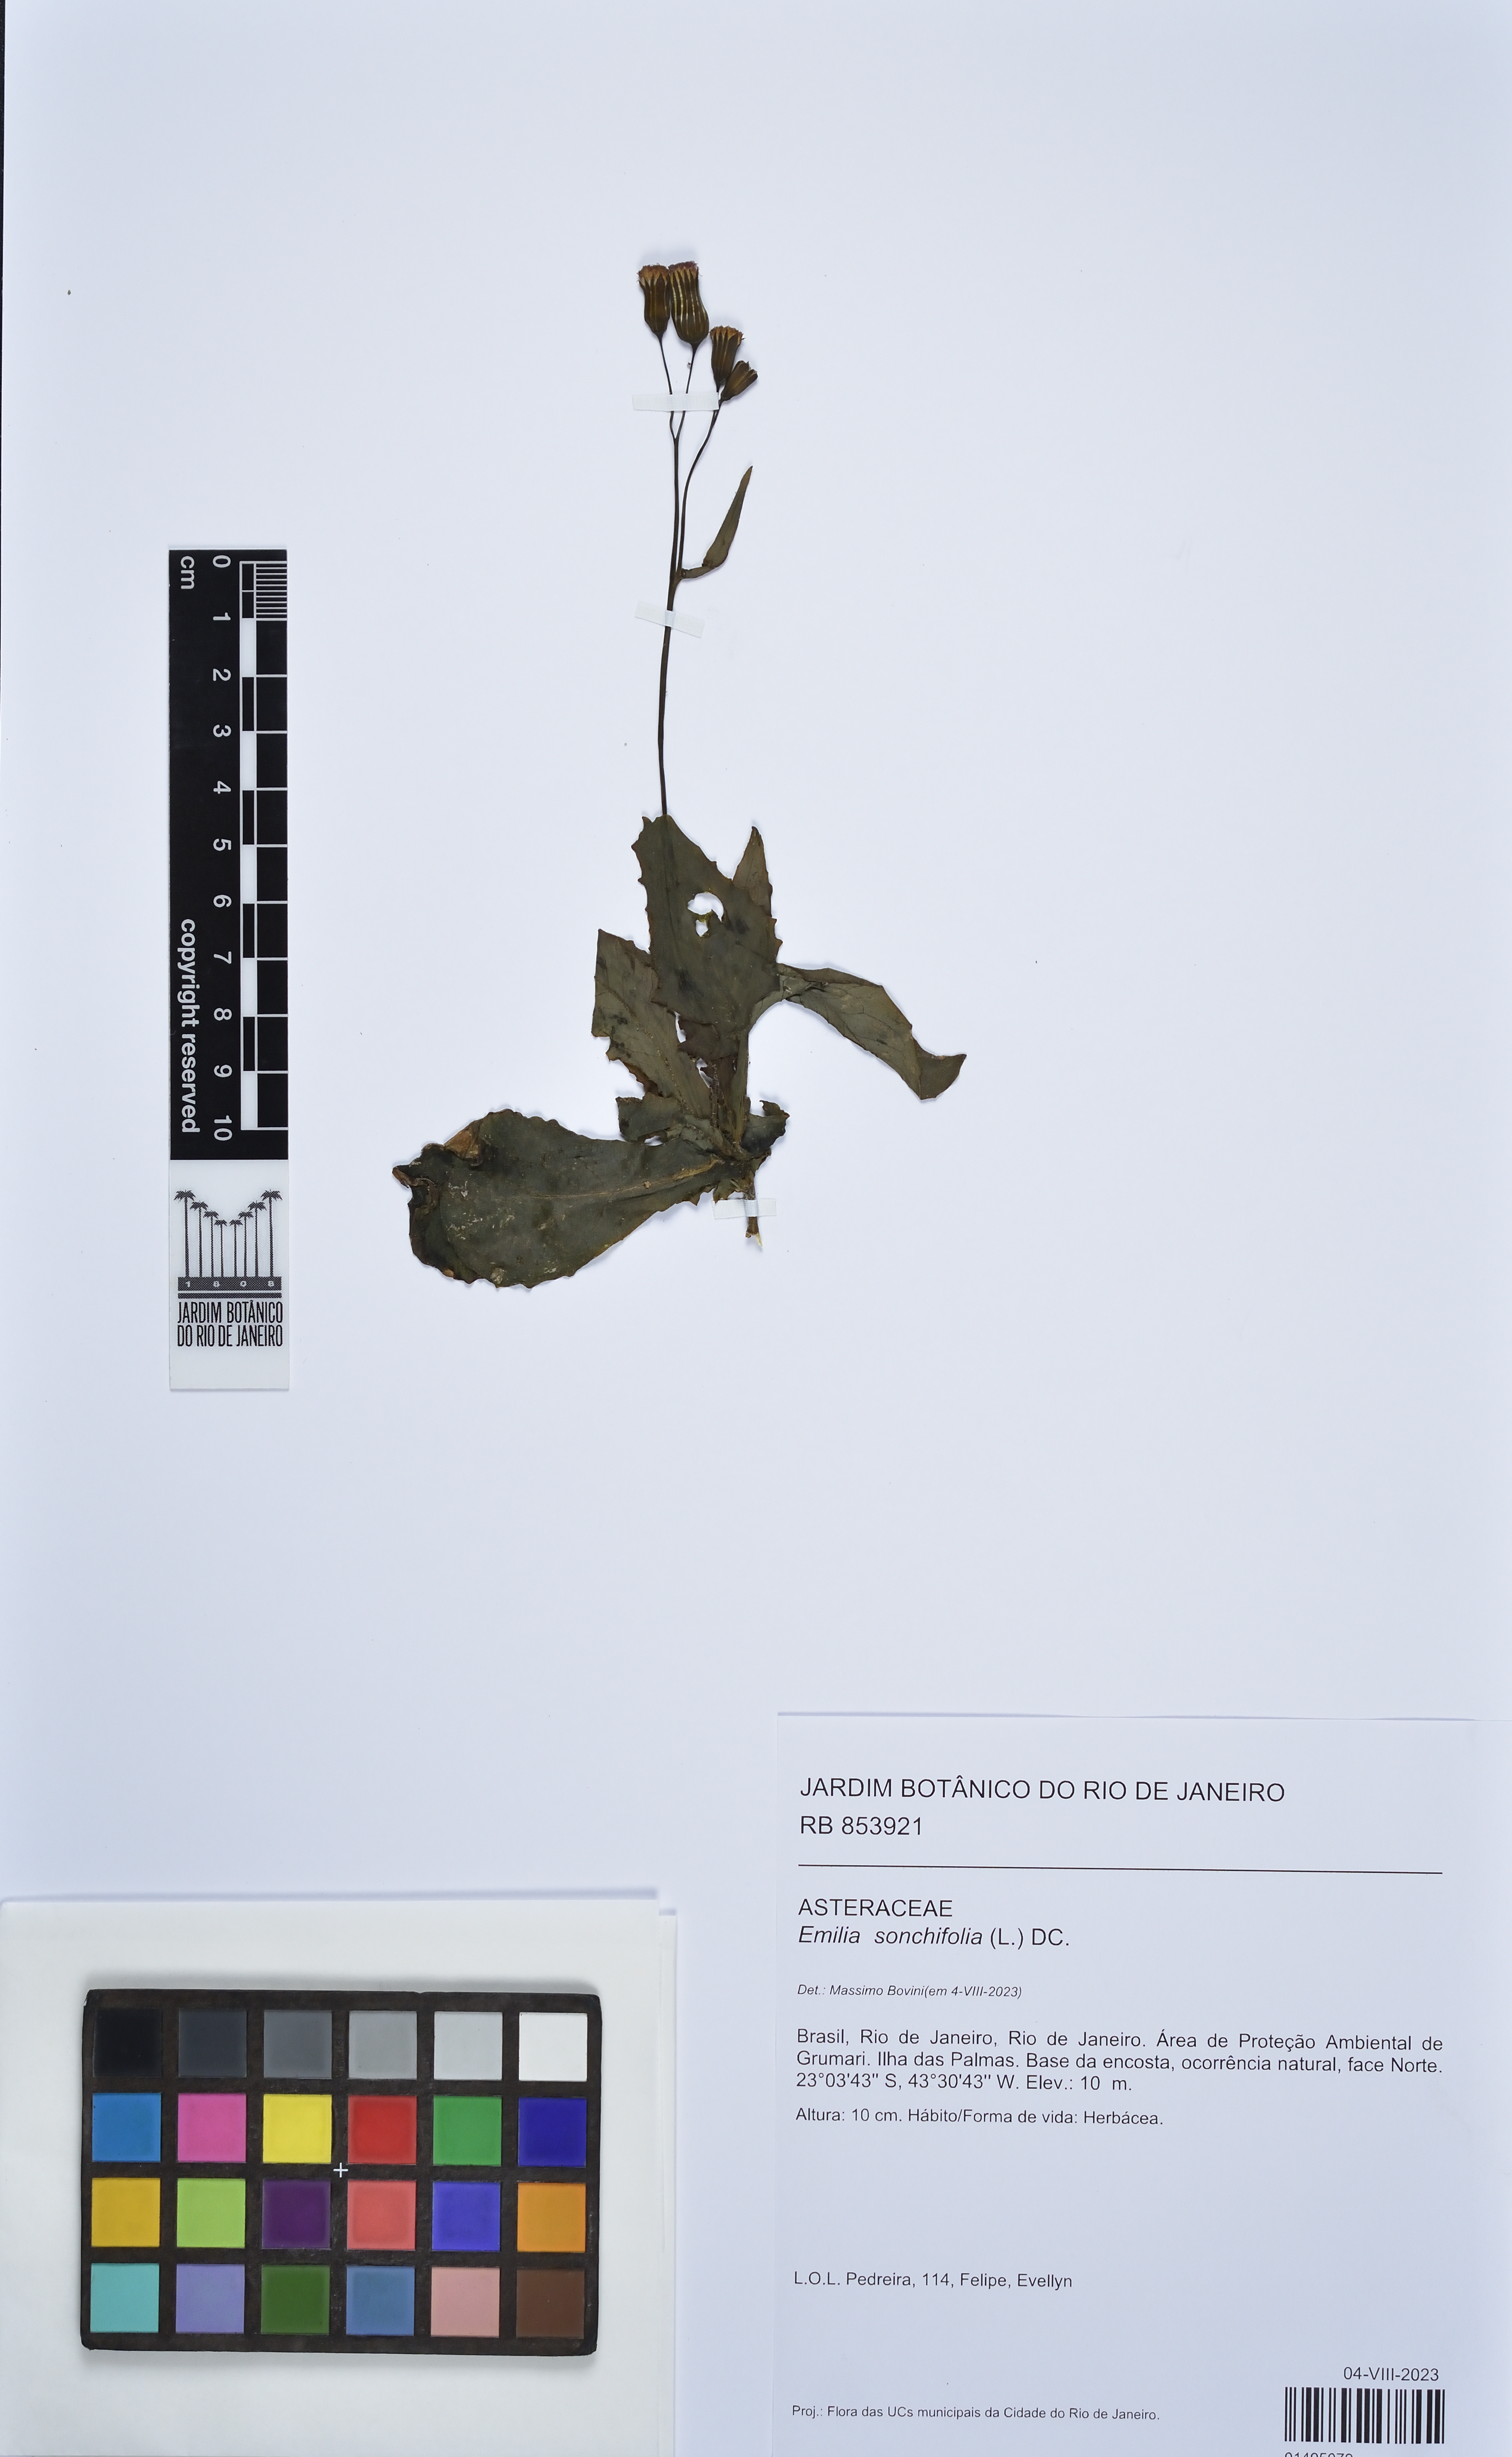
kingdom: Plantae
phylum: Tracheophyta
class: Magnoliopsida
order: Asterales
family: Asteraceae
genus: Emilia
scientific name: Emilia sonchifolia
